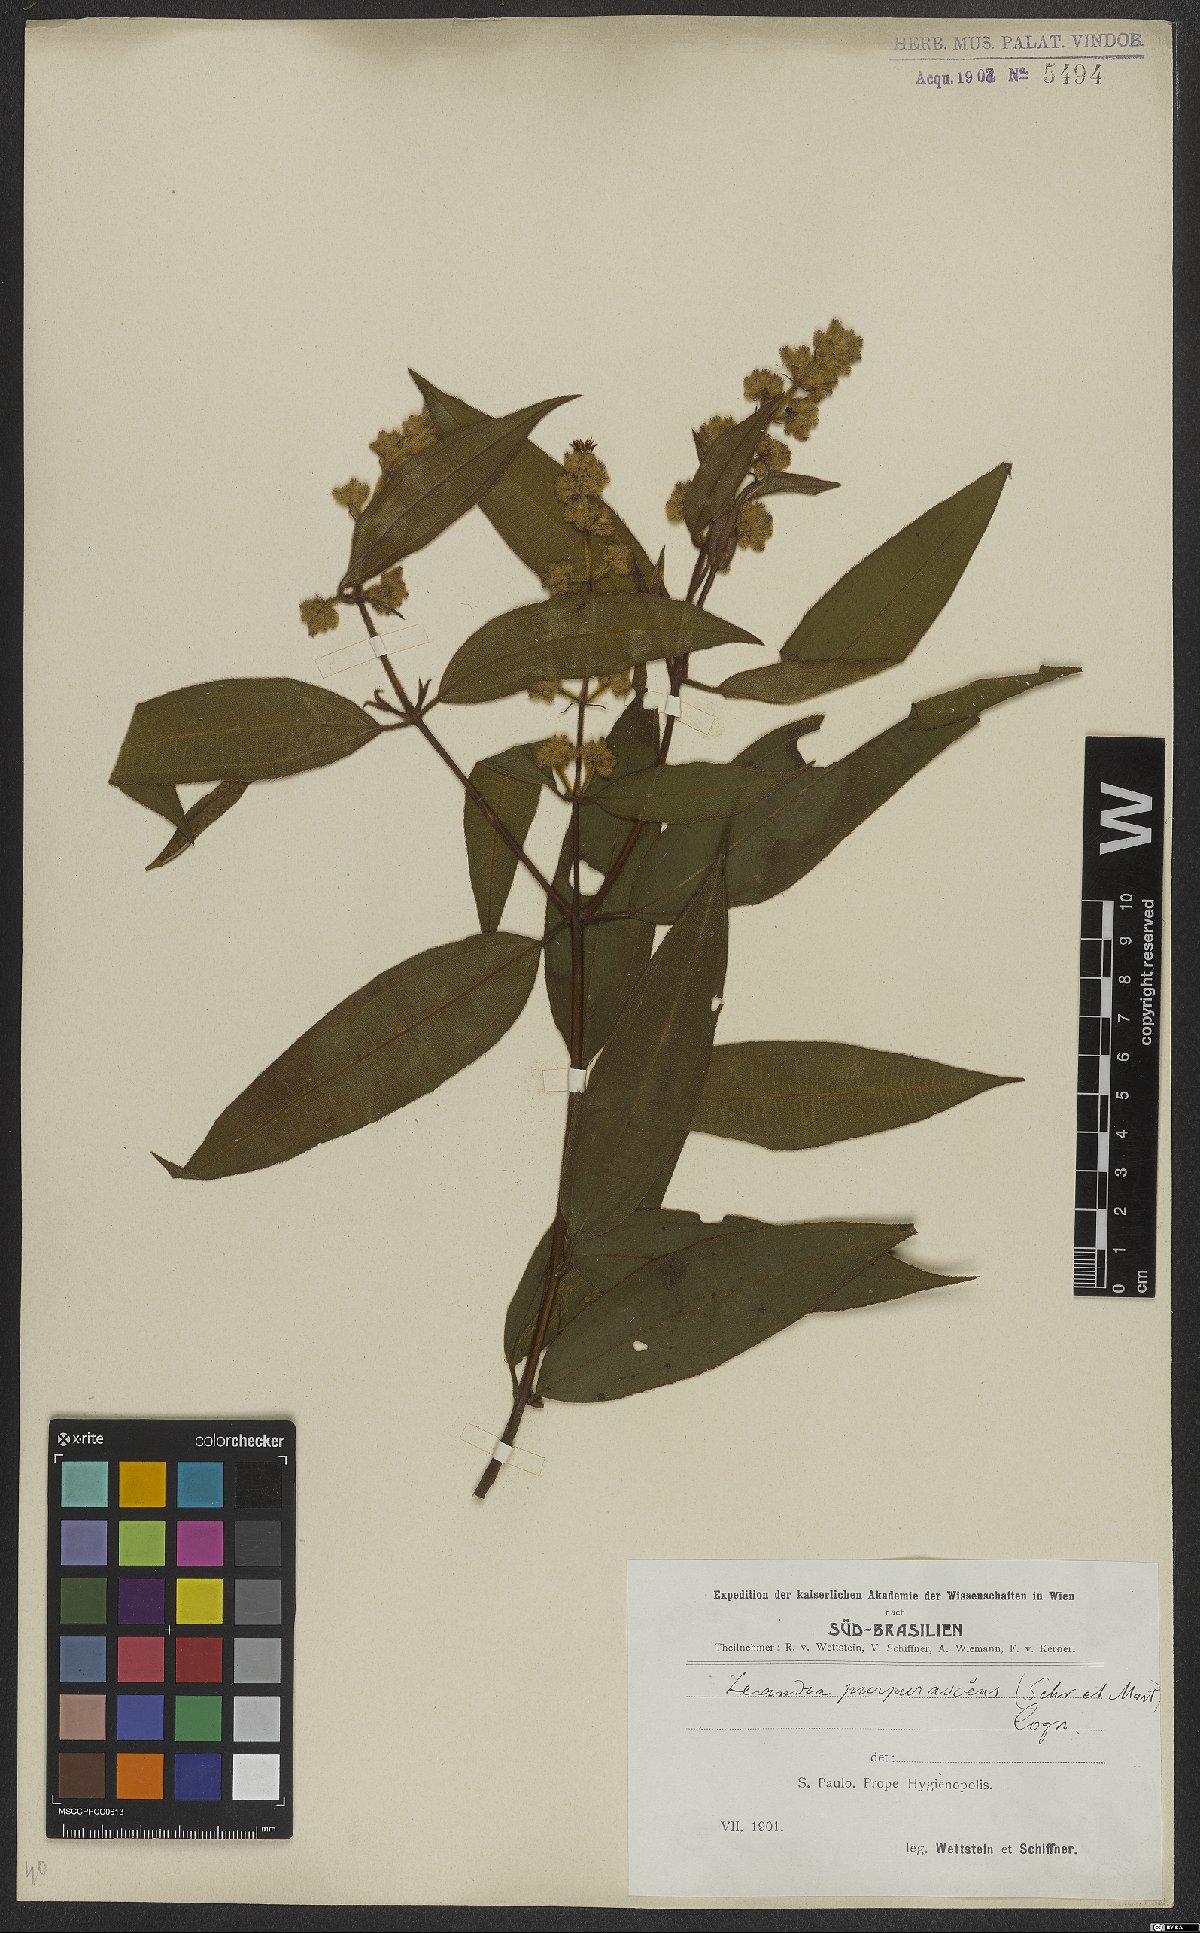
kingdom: Plantae
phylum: Tracheophyta
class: Magnoliopsida
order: Myrtales
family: Melastomataceae
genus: Miconia
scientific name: Miconia microstachya
